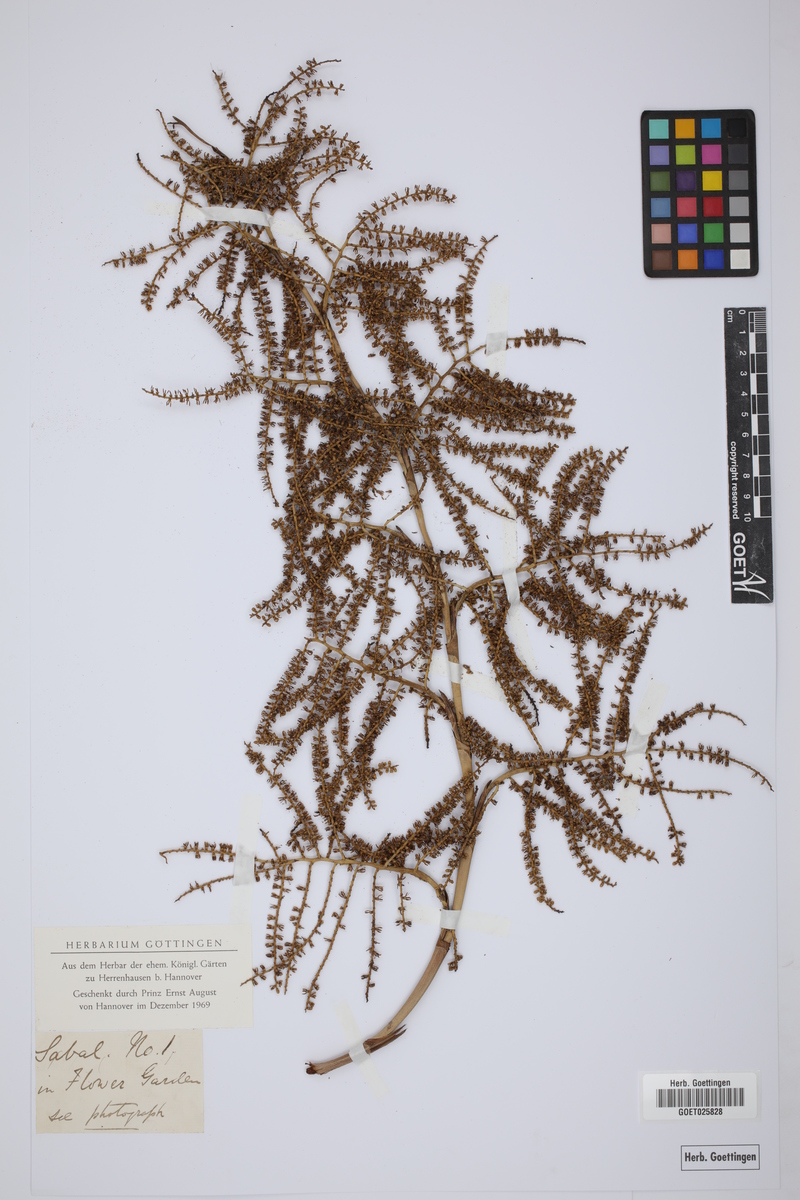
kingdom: Plantae
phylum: Tracheophyta
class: Liliopsida
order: Arecales
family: Arecaceae
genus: Sabal
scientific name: Sabal
